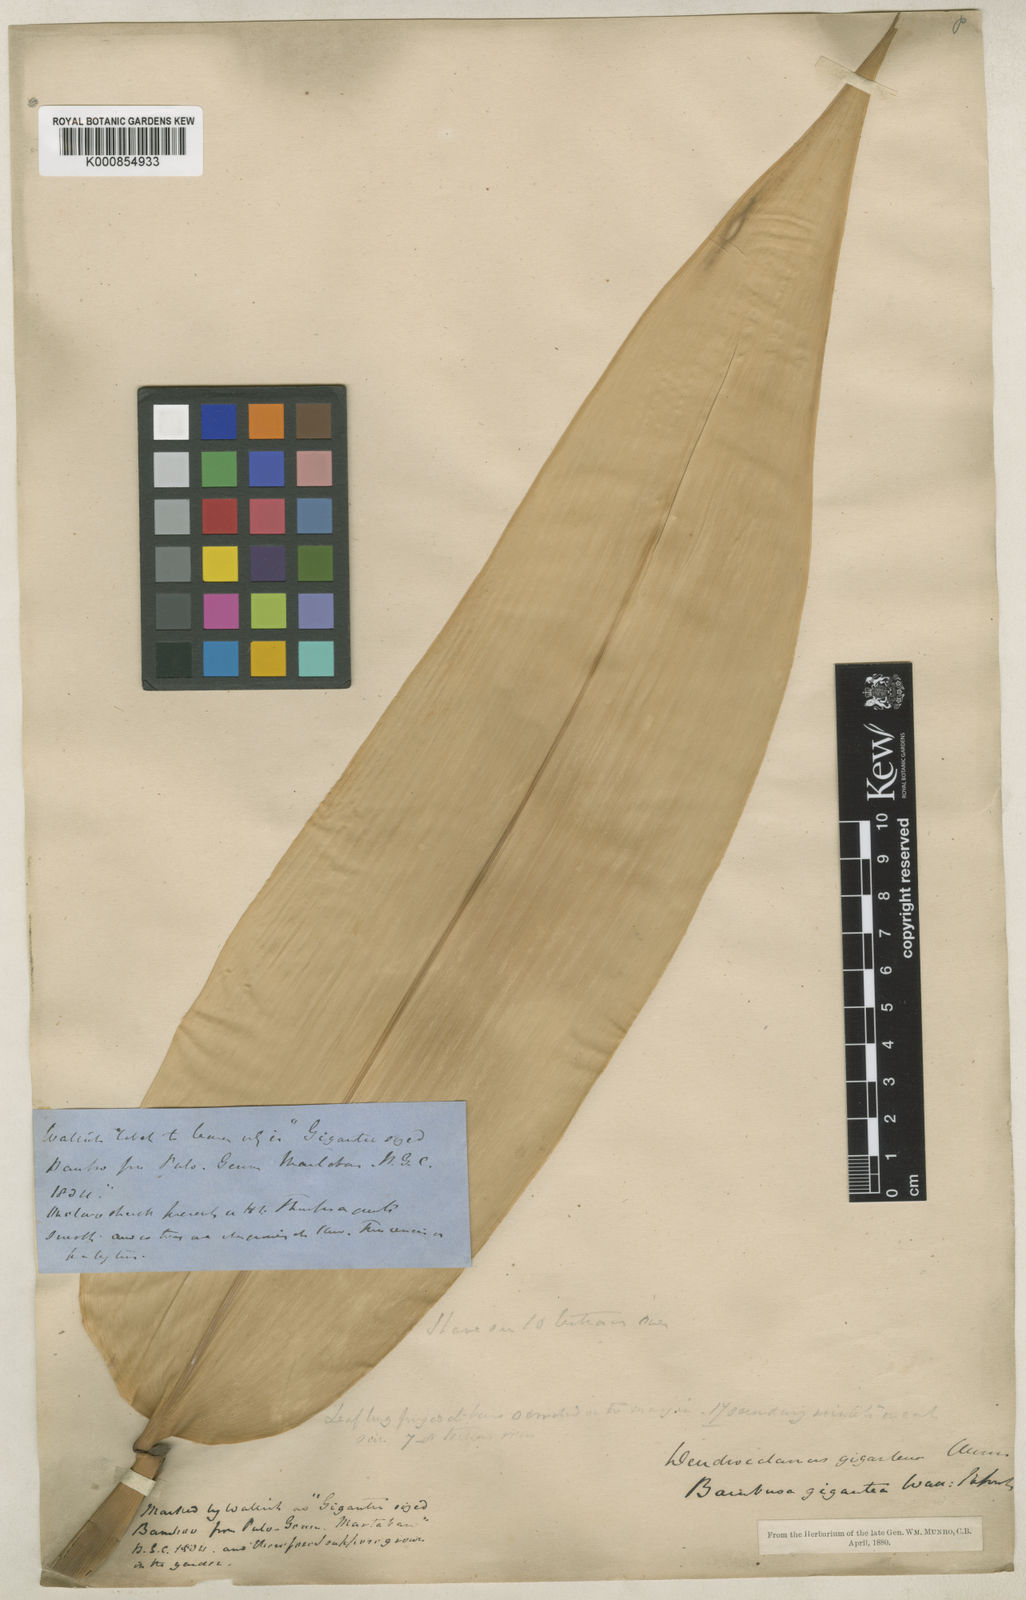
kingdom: Plantae
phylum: Tracheophyta
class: Liliopsida
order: Poales
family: Poaceae
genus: Dendrocalamus
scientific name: Dendrocalamus giganteus
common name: Giant bamboo
